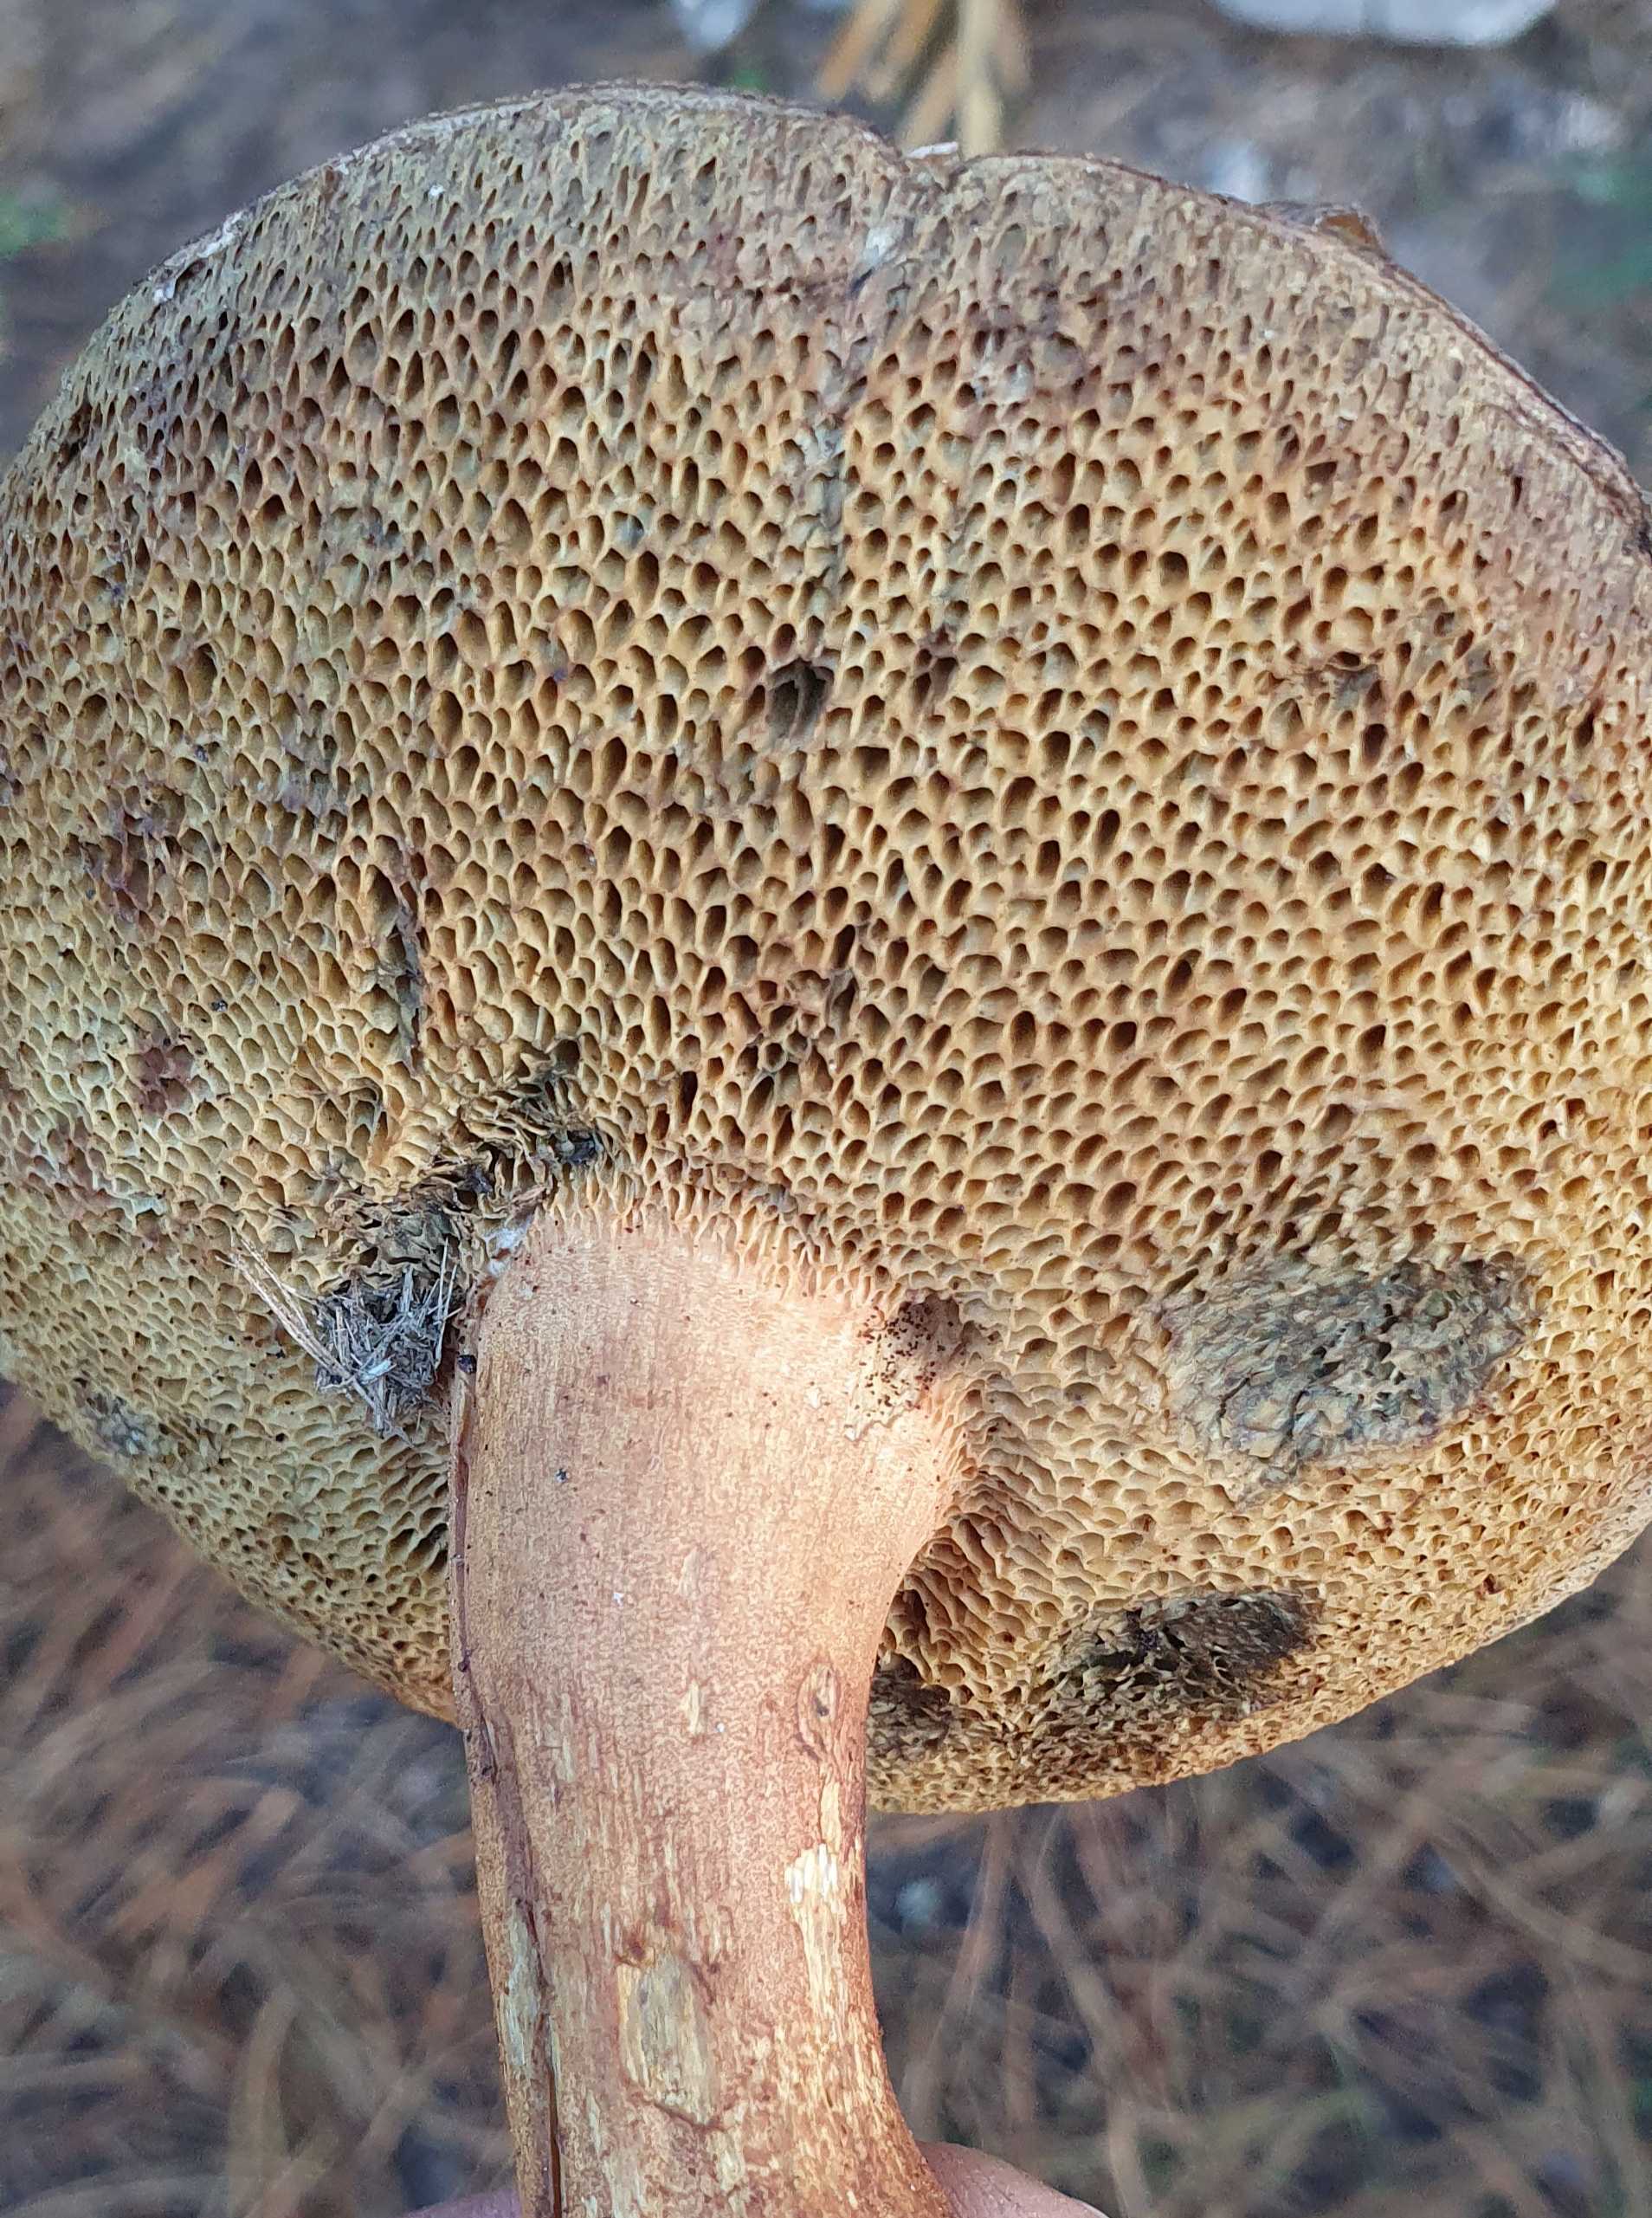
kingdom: Fungi
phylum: Basidiomycota
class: Agaricomycetes
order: Boletales
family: Boletaceae
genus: Imleria
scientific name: Imleria badia
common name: brunstokket rørhat
